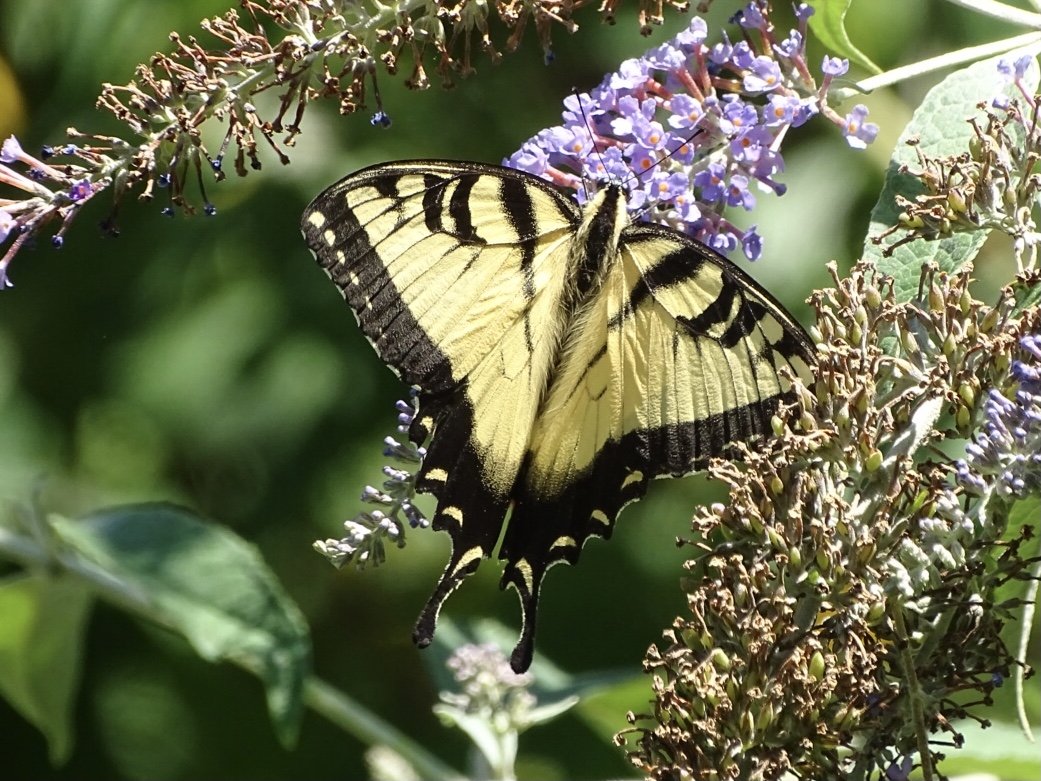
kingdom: Animalia
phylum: Arthropoda
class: Insecta
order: Lepidoptera
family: Papilionidae
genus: Pterourus
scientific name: Pterourus glaucus
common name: Eastern Tiger Swallowtail
